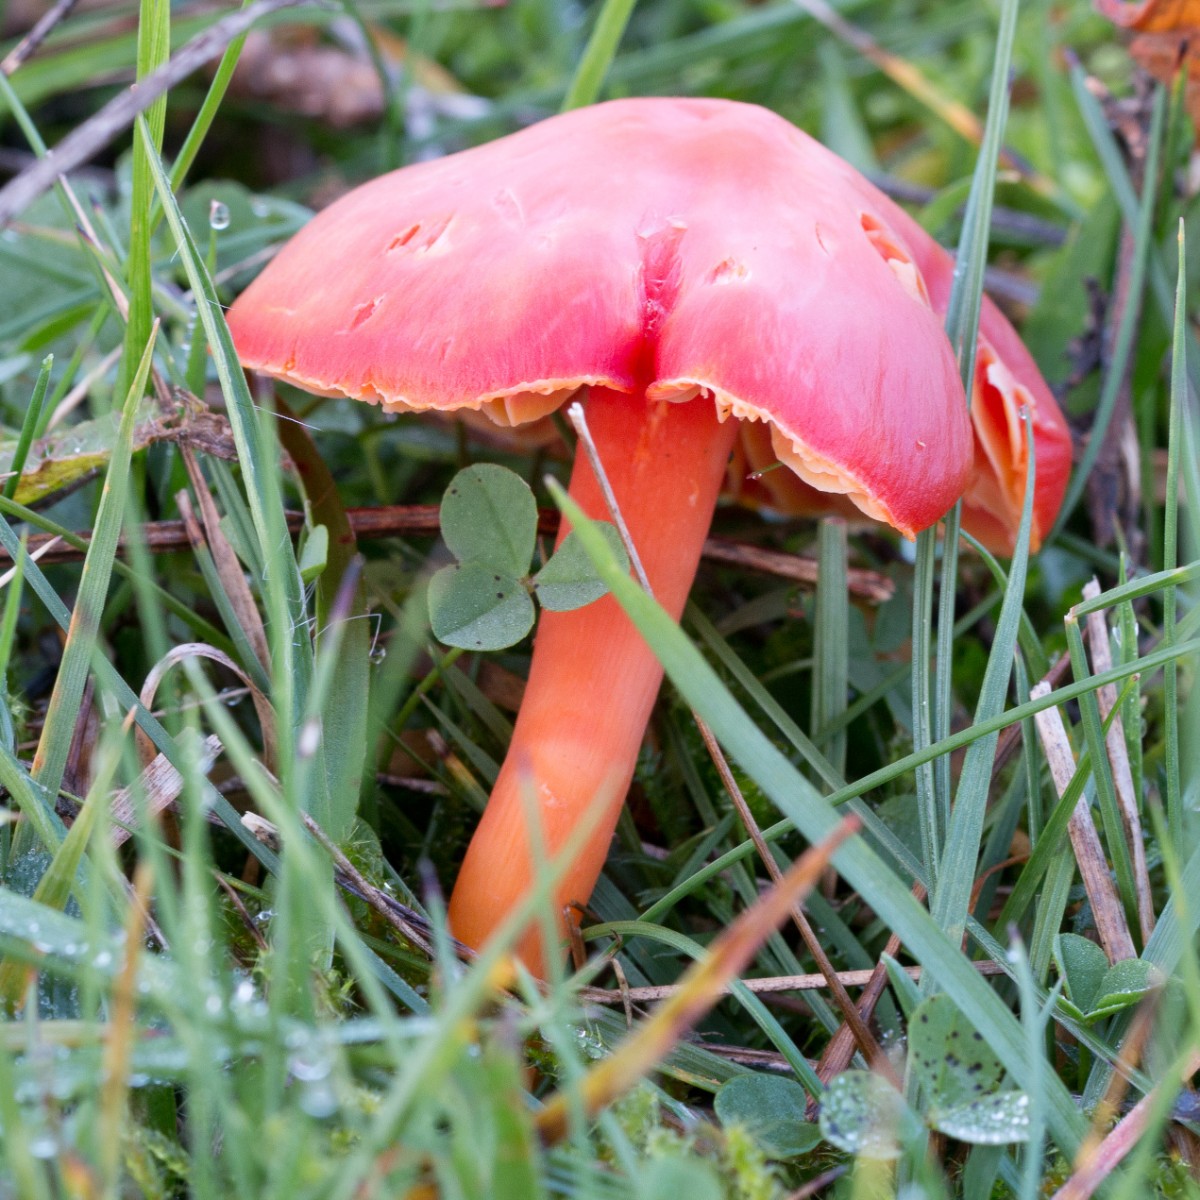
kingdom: Fungi
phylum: Basidiomycota
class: Agaricomycetes
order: Agaricales
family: Hygrophoraceae
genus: Hygrocybe
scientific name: Hygrocybe coccinea
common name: cinnober-vokshat
